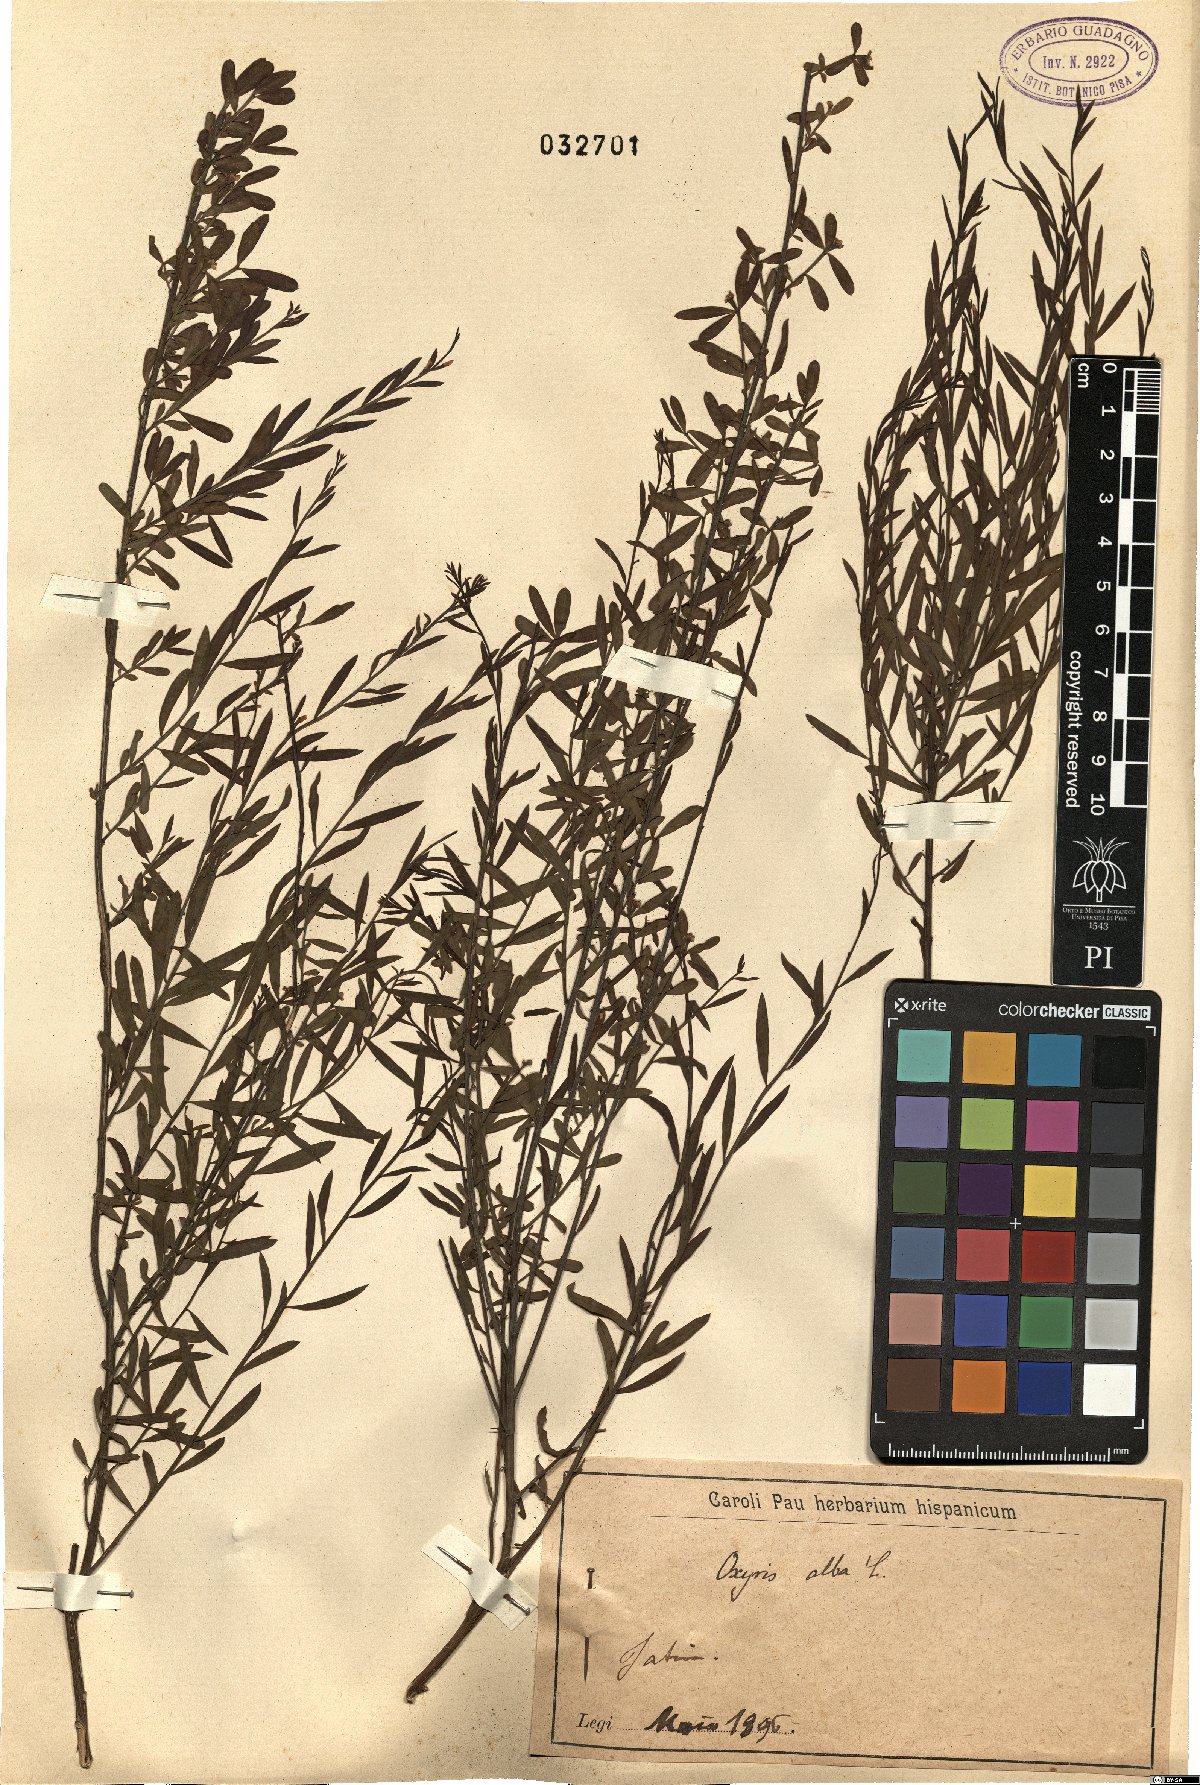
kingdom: Plantae
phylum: Tracheophyta
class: Magnoliopsida
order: Santalales
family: Santalaceae
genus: Osyris
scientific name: Osyris alba
